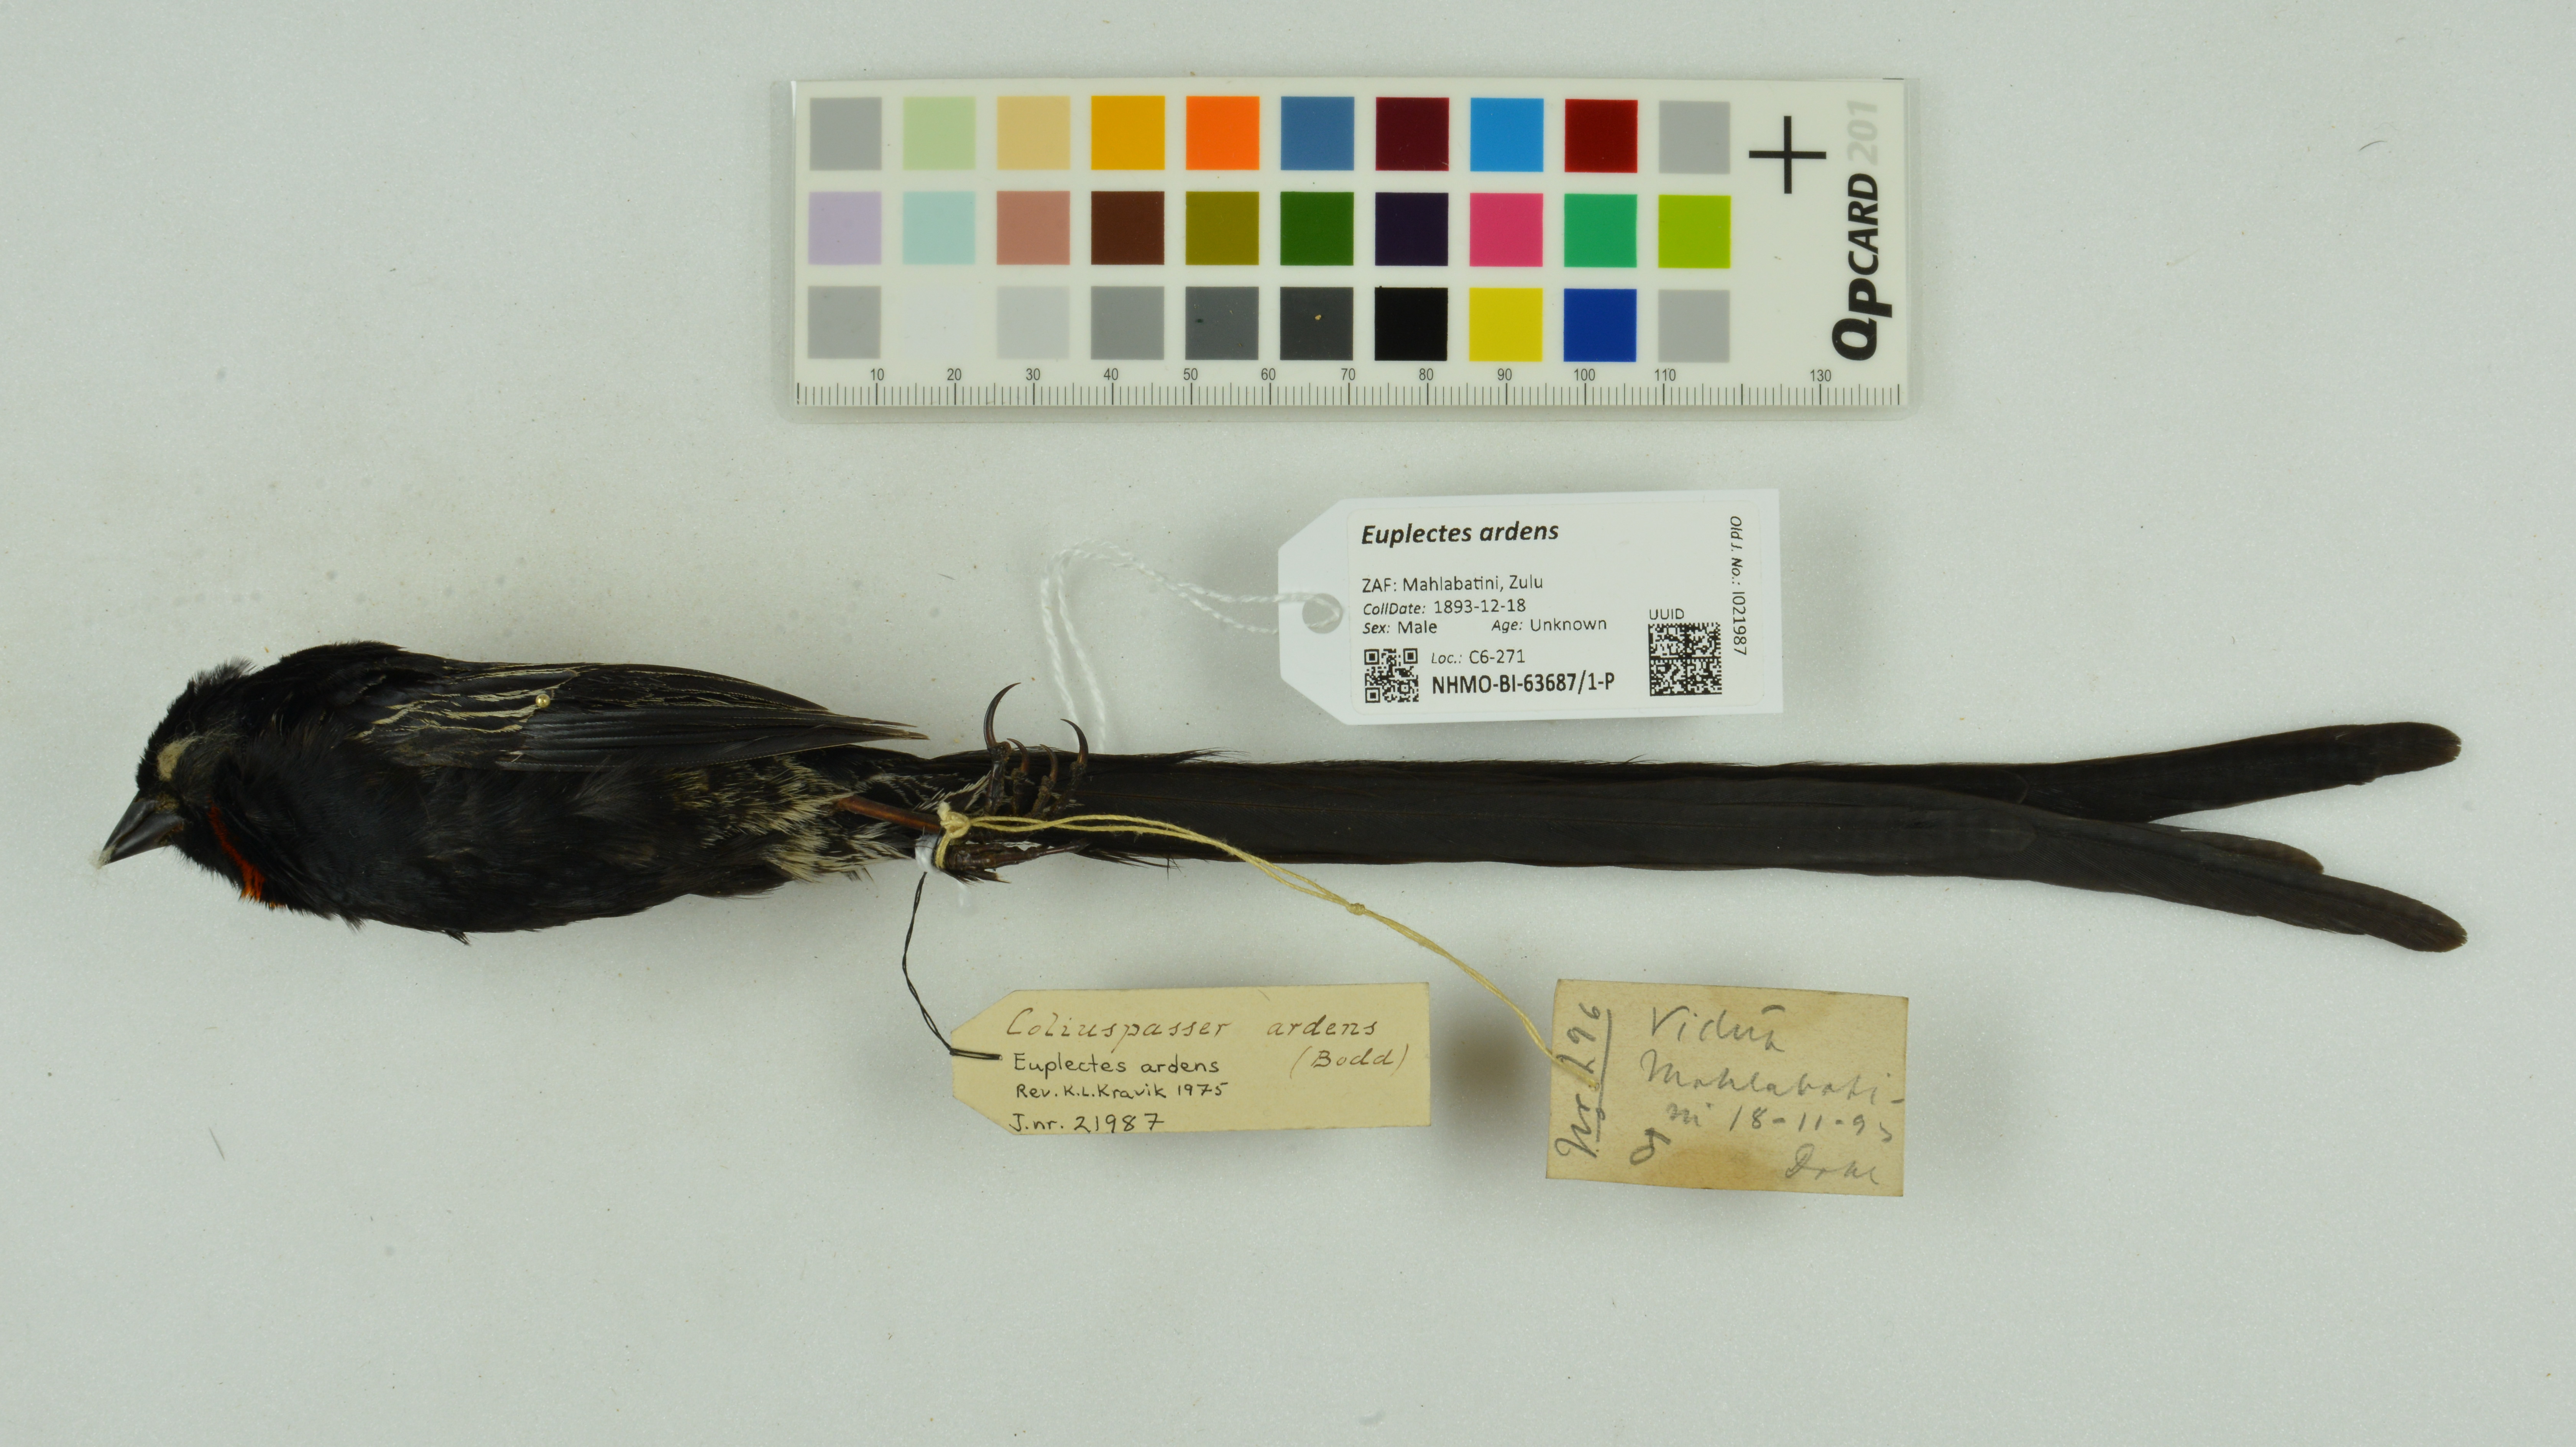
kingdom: Animalia
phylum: Chordata
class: Aves
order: Passeriformes
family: Ploceidae
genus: Euplectes
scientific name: Euplectes ardens
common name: Red-collared widowbird
